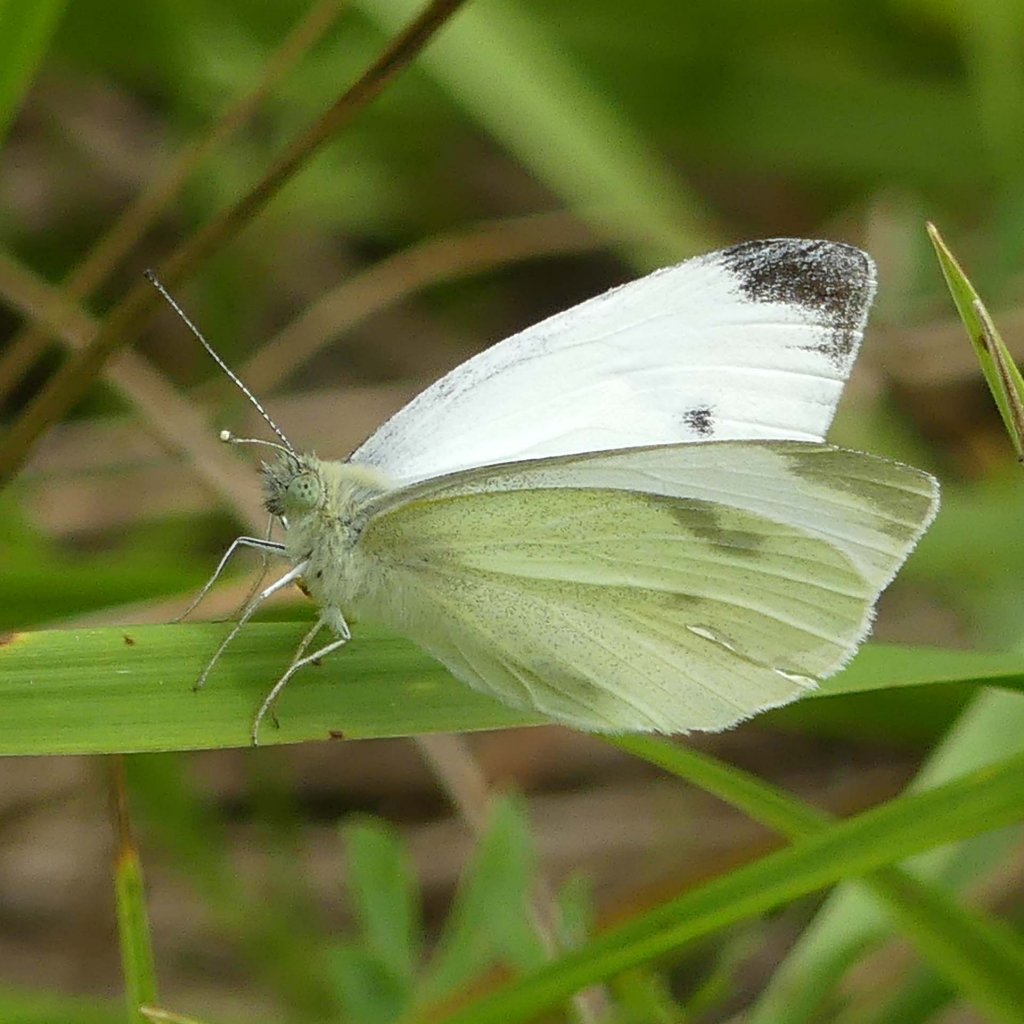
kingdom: Animalia
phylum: Arthropoda
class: Insecta
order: Lepidoptera
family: Pieridae
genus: Pieris
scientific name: Pieris rapae
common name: Cabbage White
